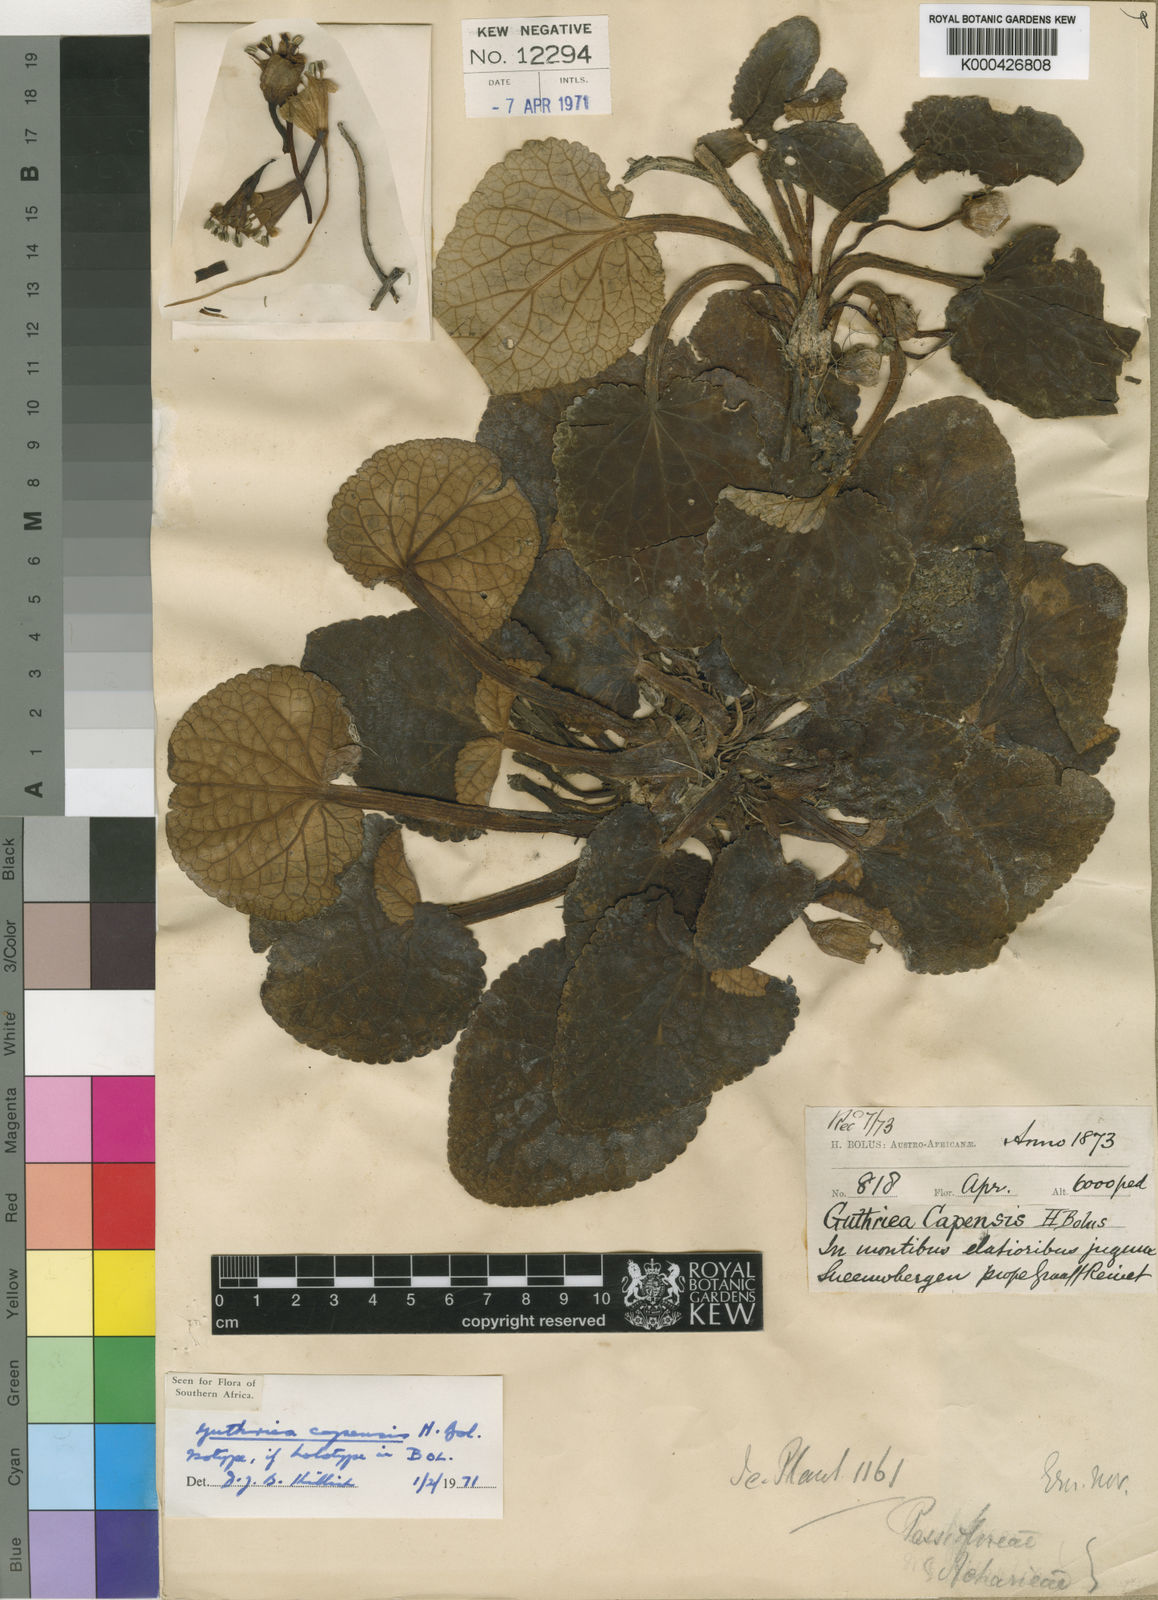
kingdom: Plantae
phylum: Tracheophyta
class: Magnoliopsida
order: Malpighiales
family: Achariaceae
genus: Guthriea
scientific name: Guthriea capensis
